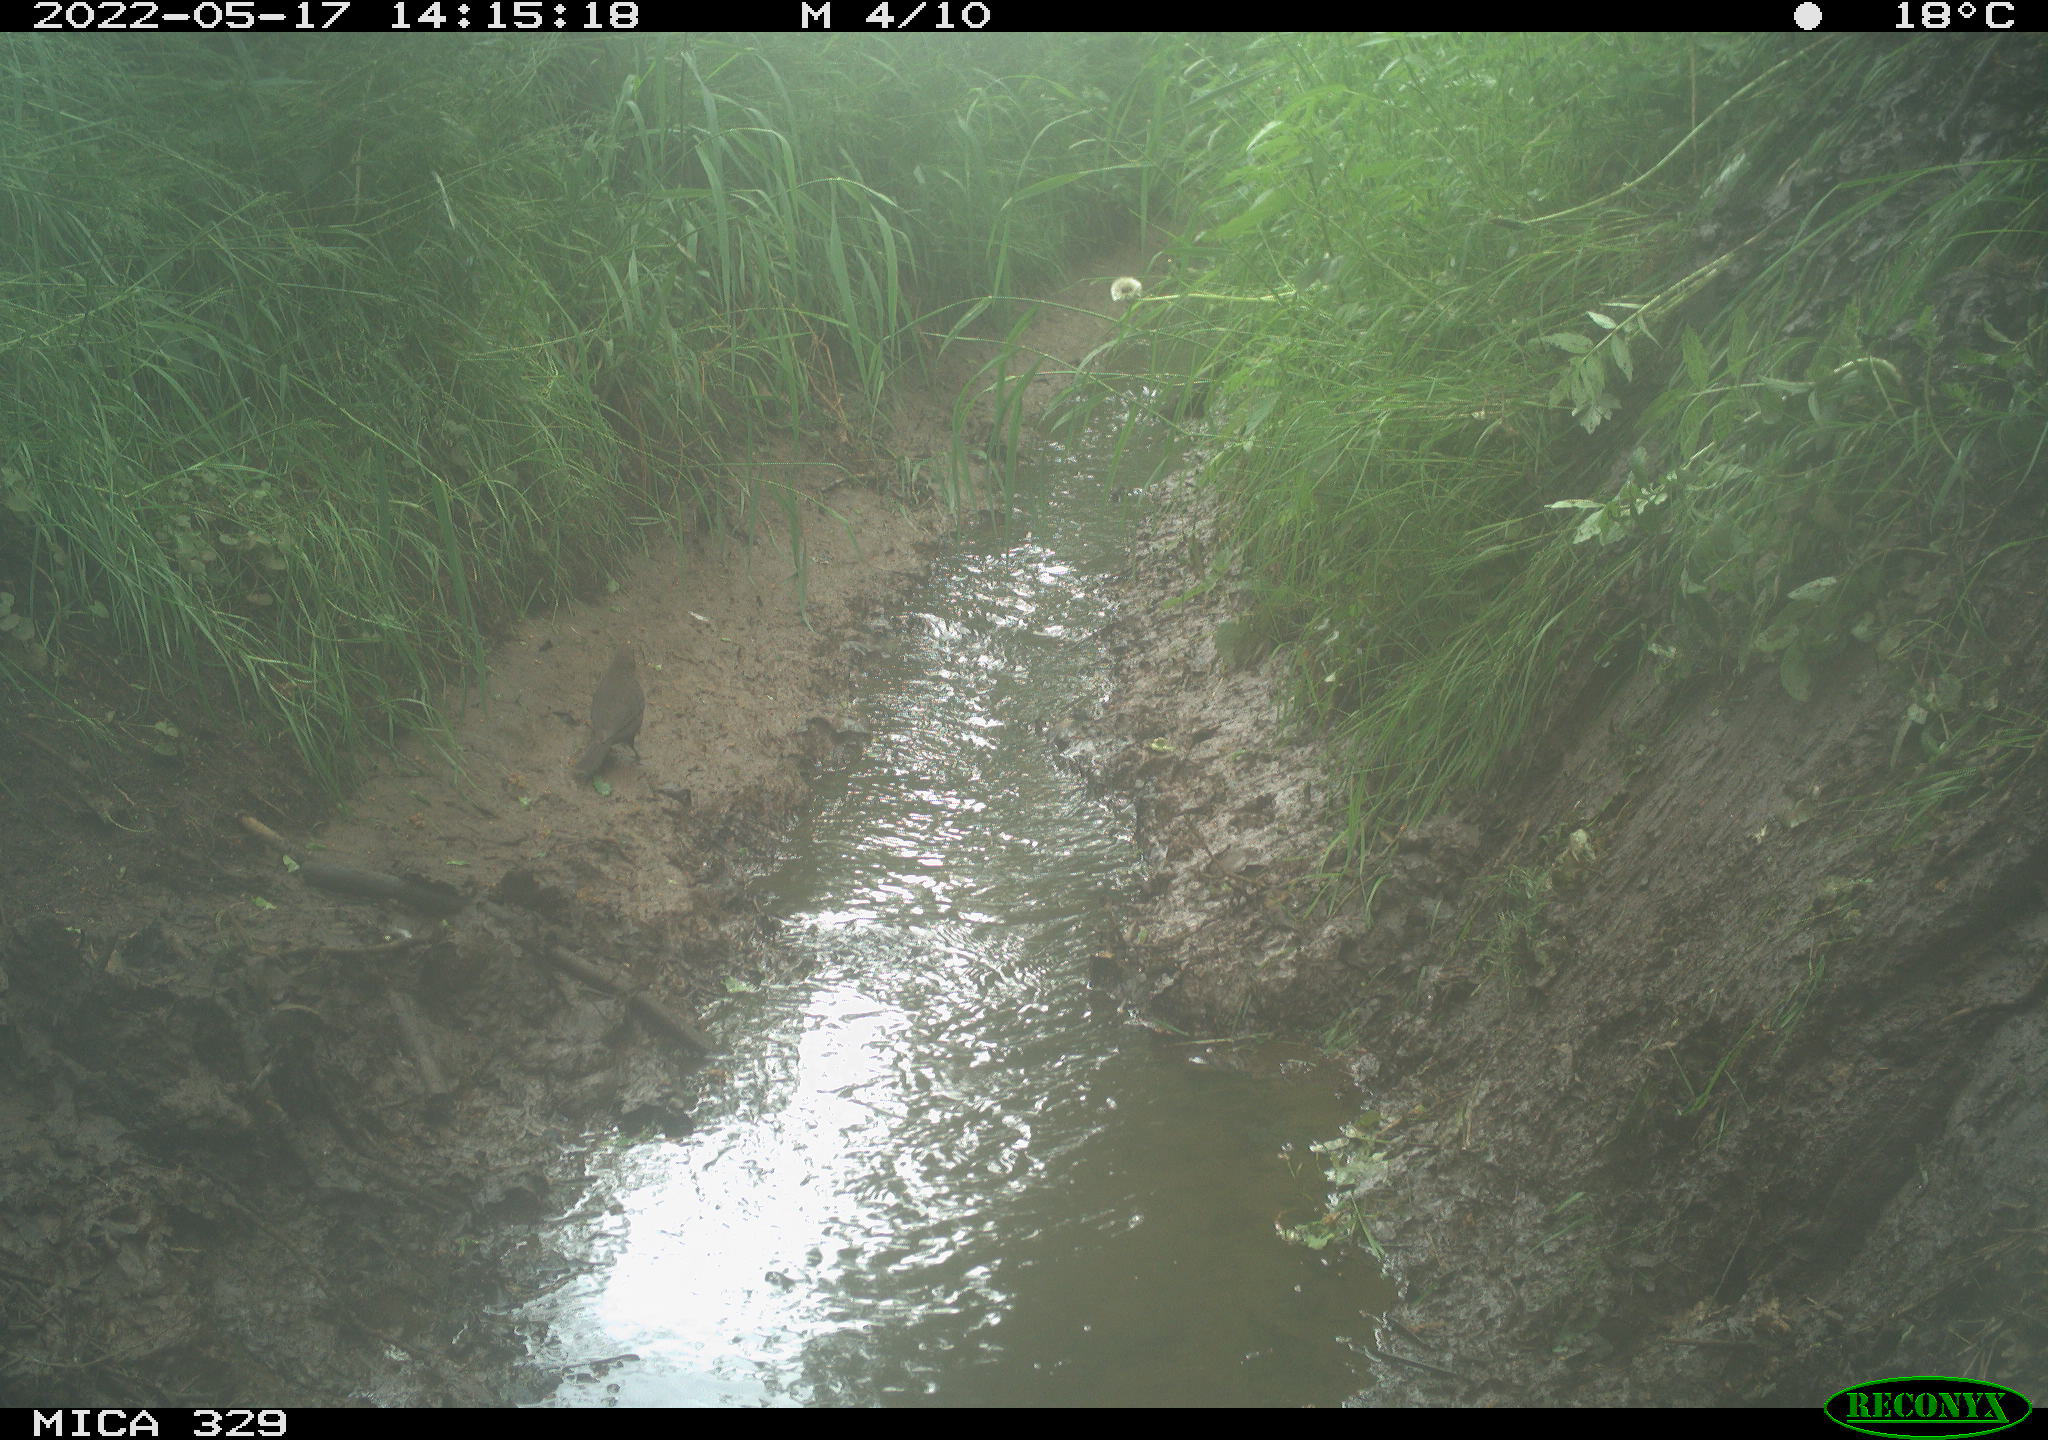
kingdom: Animalia
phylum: Chordata
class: Aves
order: Passeriformes
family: Turdidae
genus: Turdus
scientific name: Turdus merula
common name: Common blackbird
